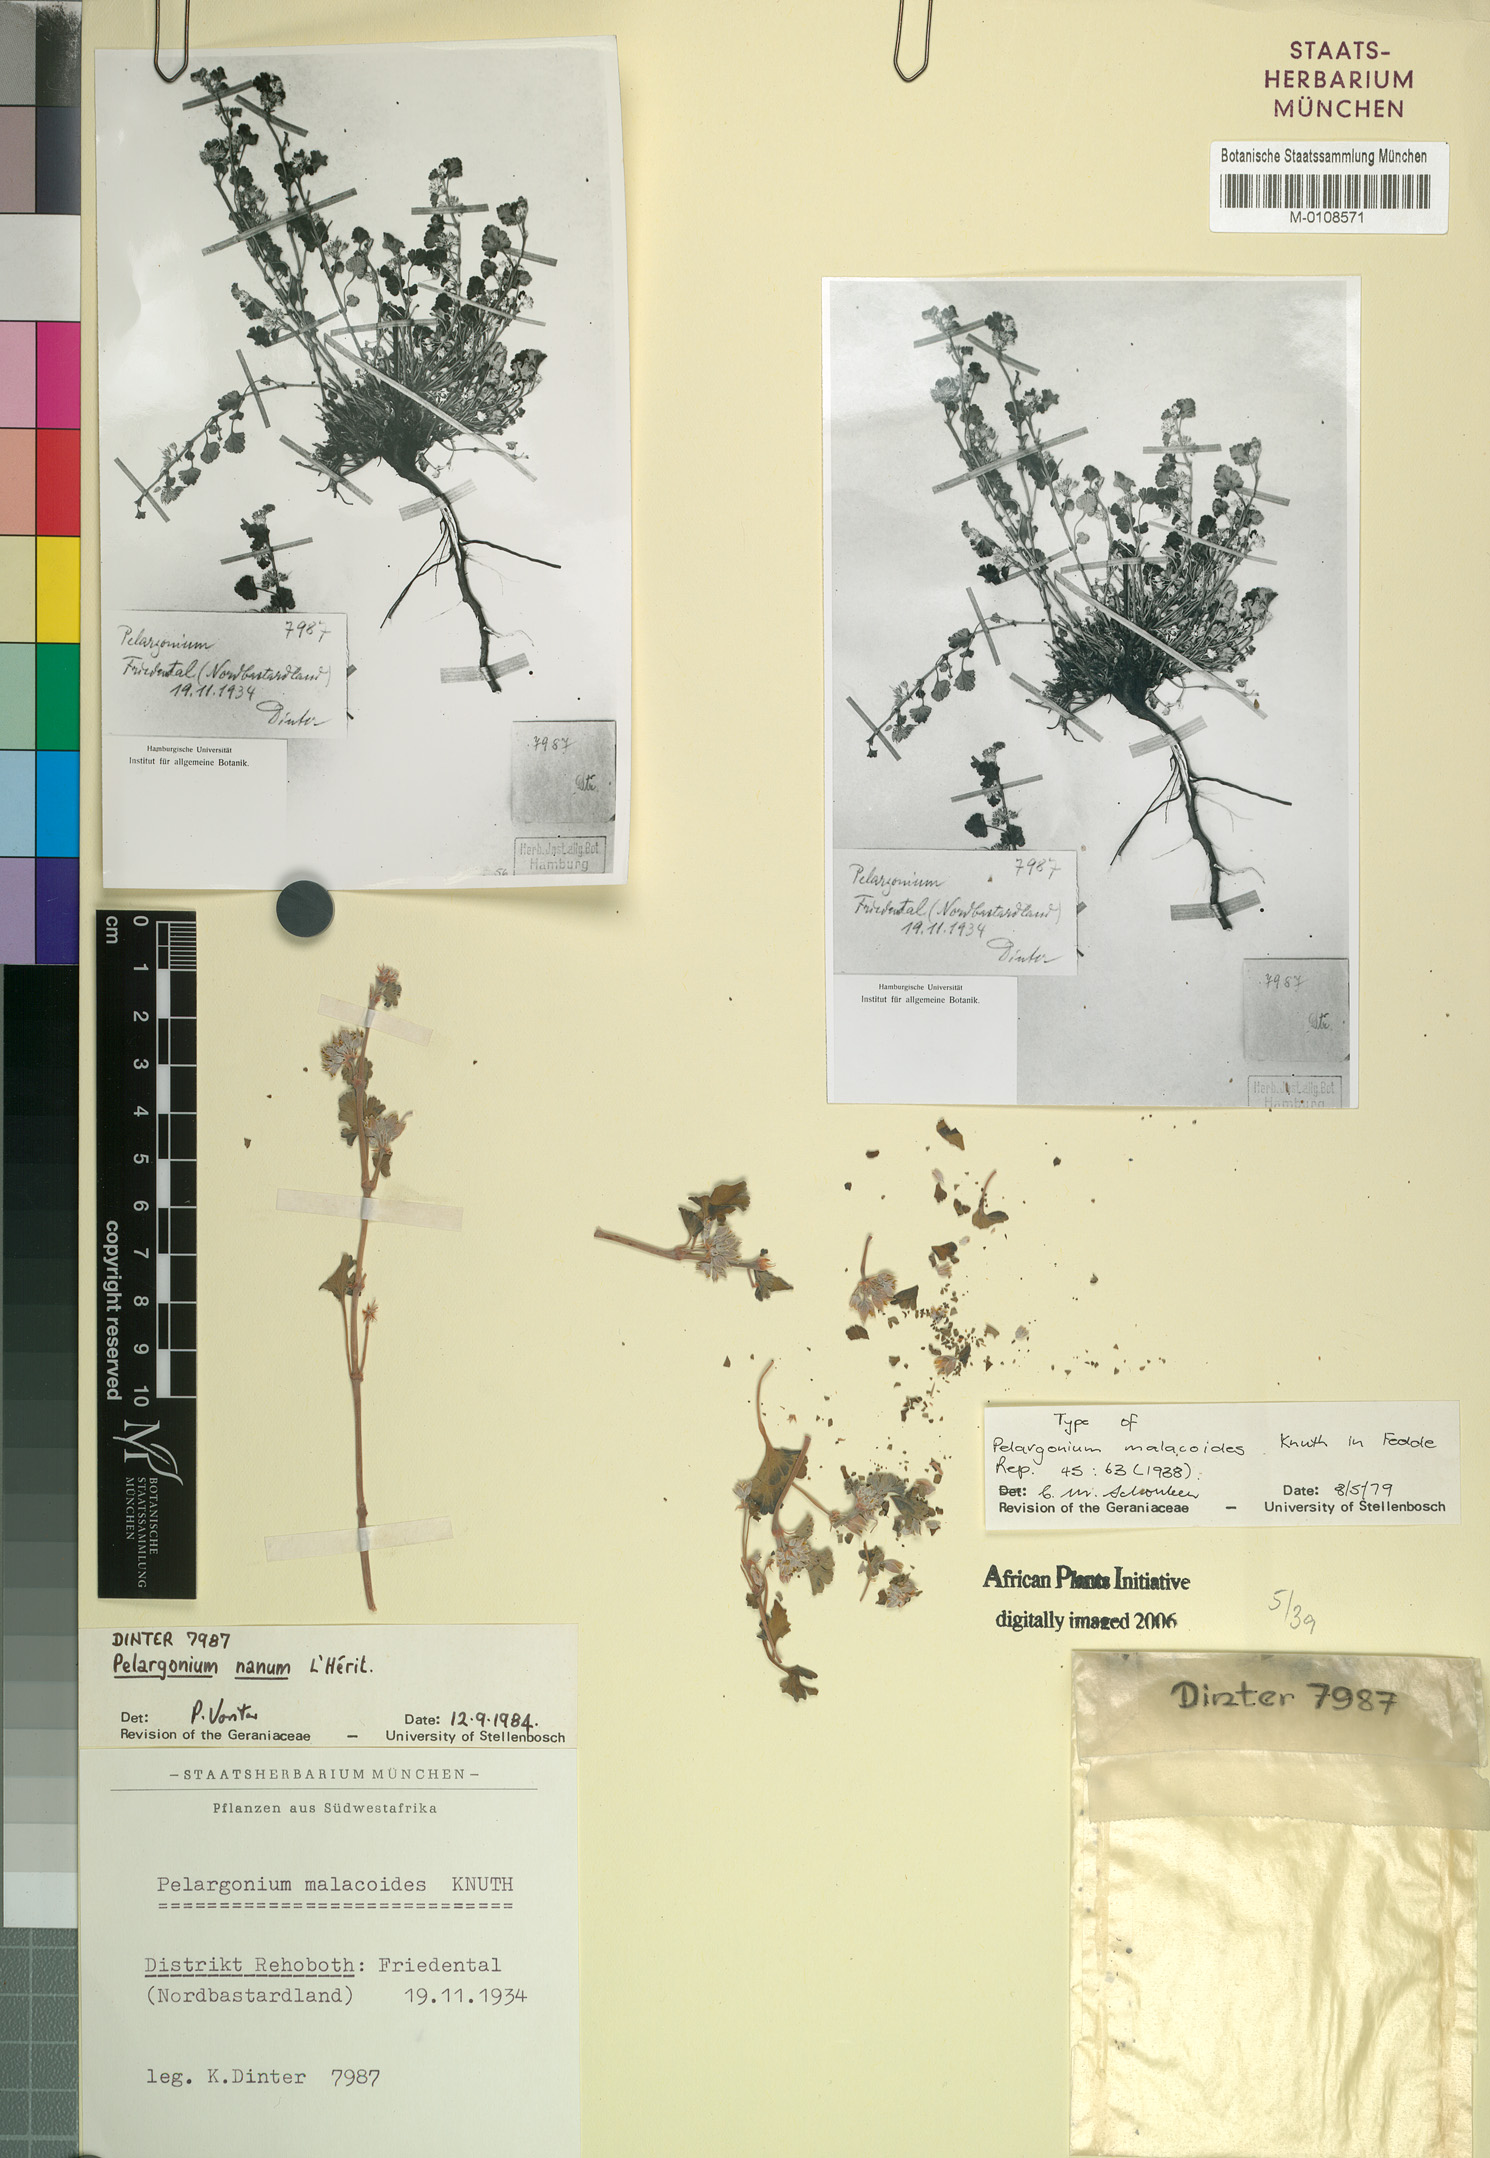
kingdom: Plantae
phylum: Tracheophyta
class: Magnoliopsida
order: Geraniales
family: Geraniaceae
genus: Pelargonium
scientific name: Pelargonium nanum
